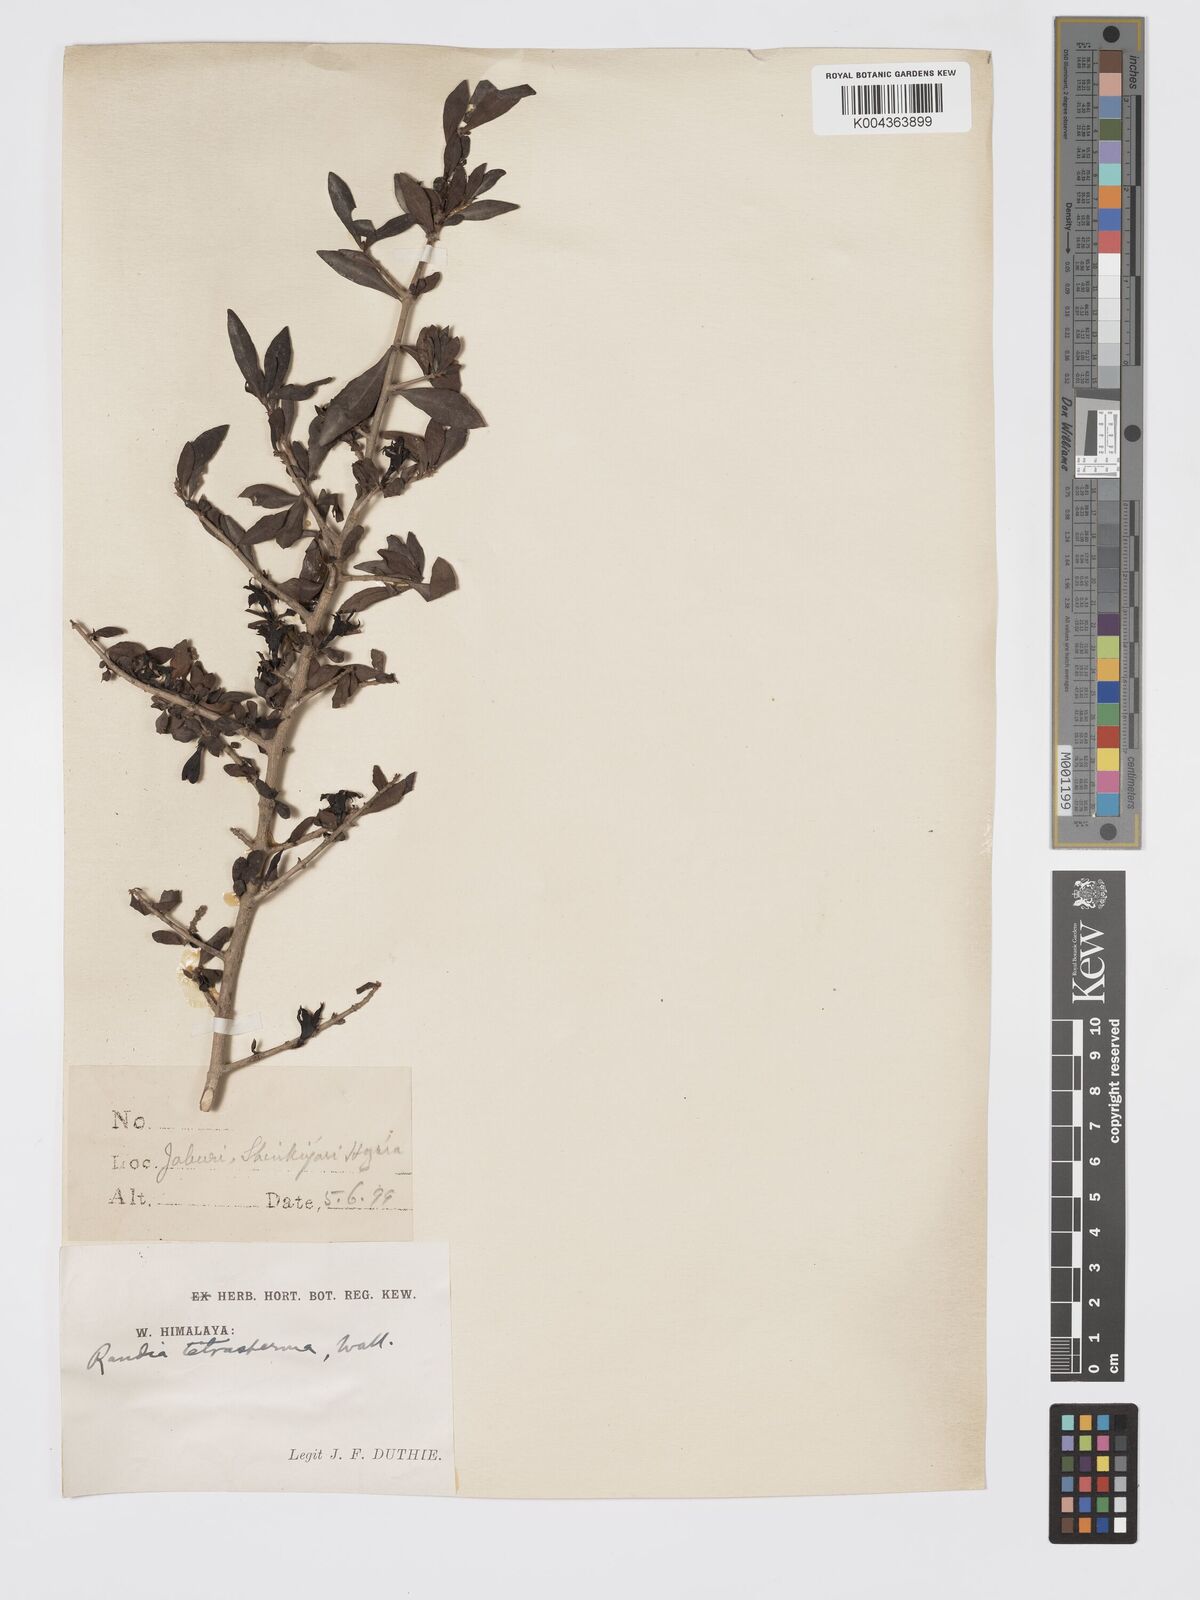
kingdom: Plantae
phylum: Tracheophyta
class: Magnoliopsida
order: Gentianales
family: Rubiaceae
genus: Himalrandia
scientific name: Himalrandia tetrasperma
